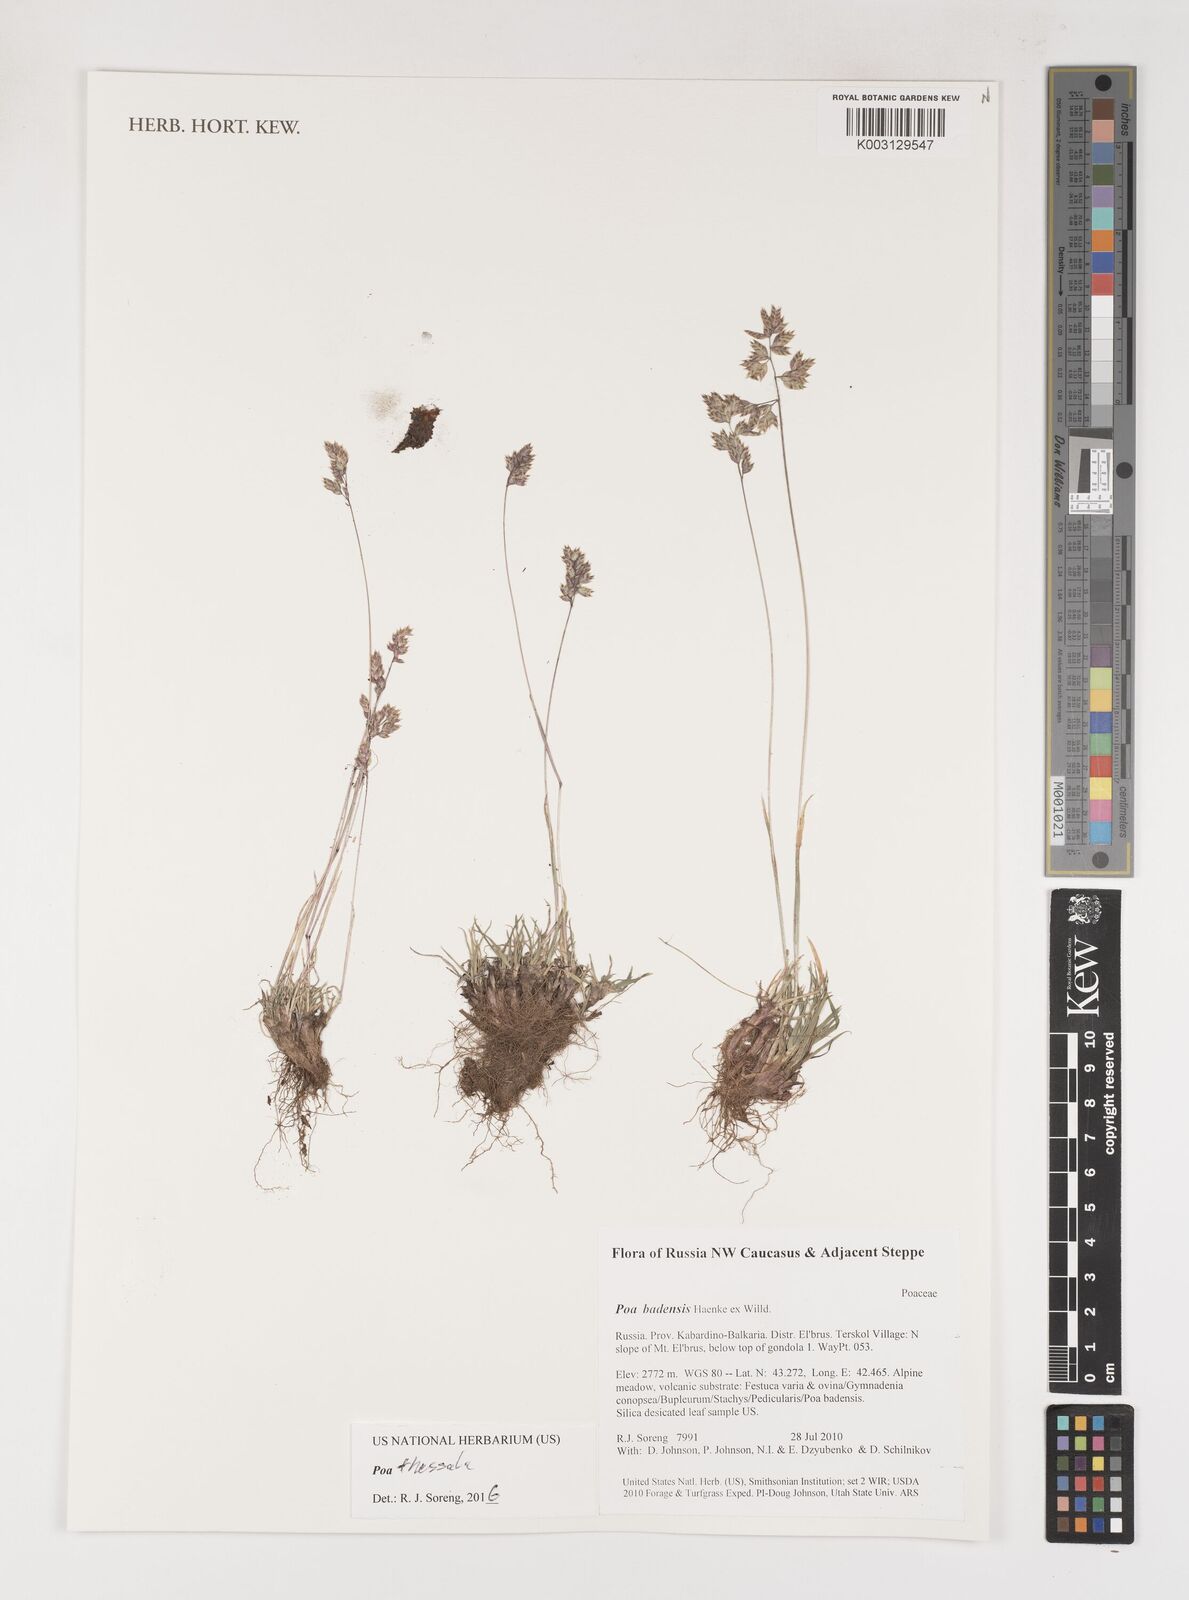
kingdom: Plantae
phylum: Tracheophyta
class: Liliopsida
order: Poales
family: Poaceae
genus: Poa
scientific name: Poa thessala
